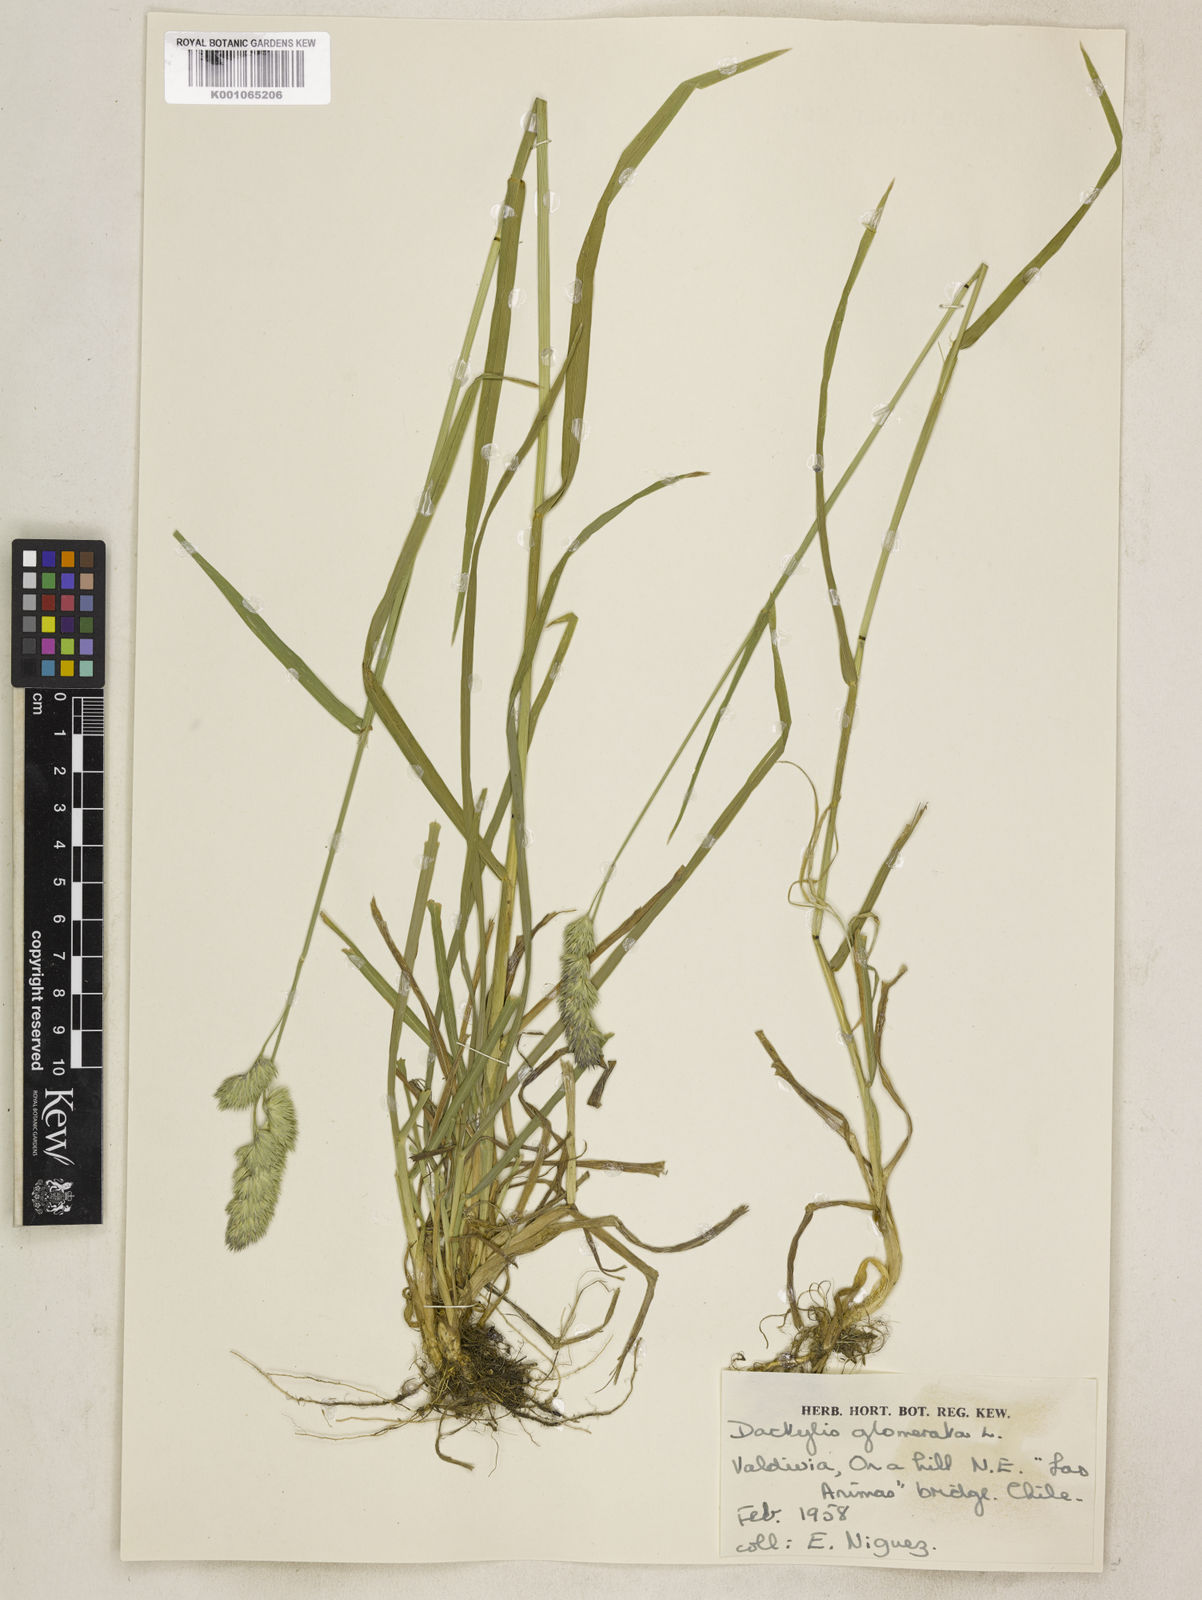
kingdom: Plantae
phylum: Tracheophyta
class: Liliopsida
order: Poales
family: Poaceae
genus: Dactylis
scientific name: Dactylis glomerata
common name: Orchardgrass
